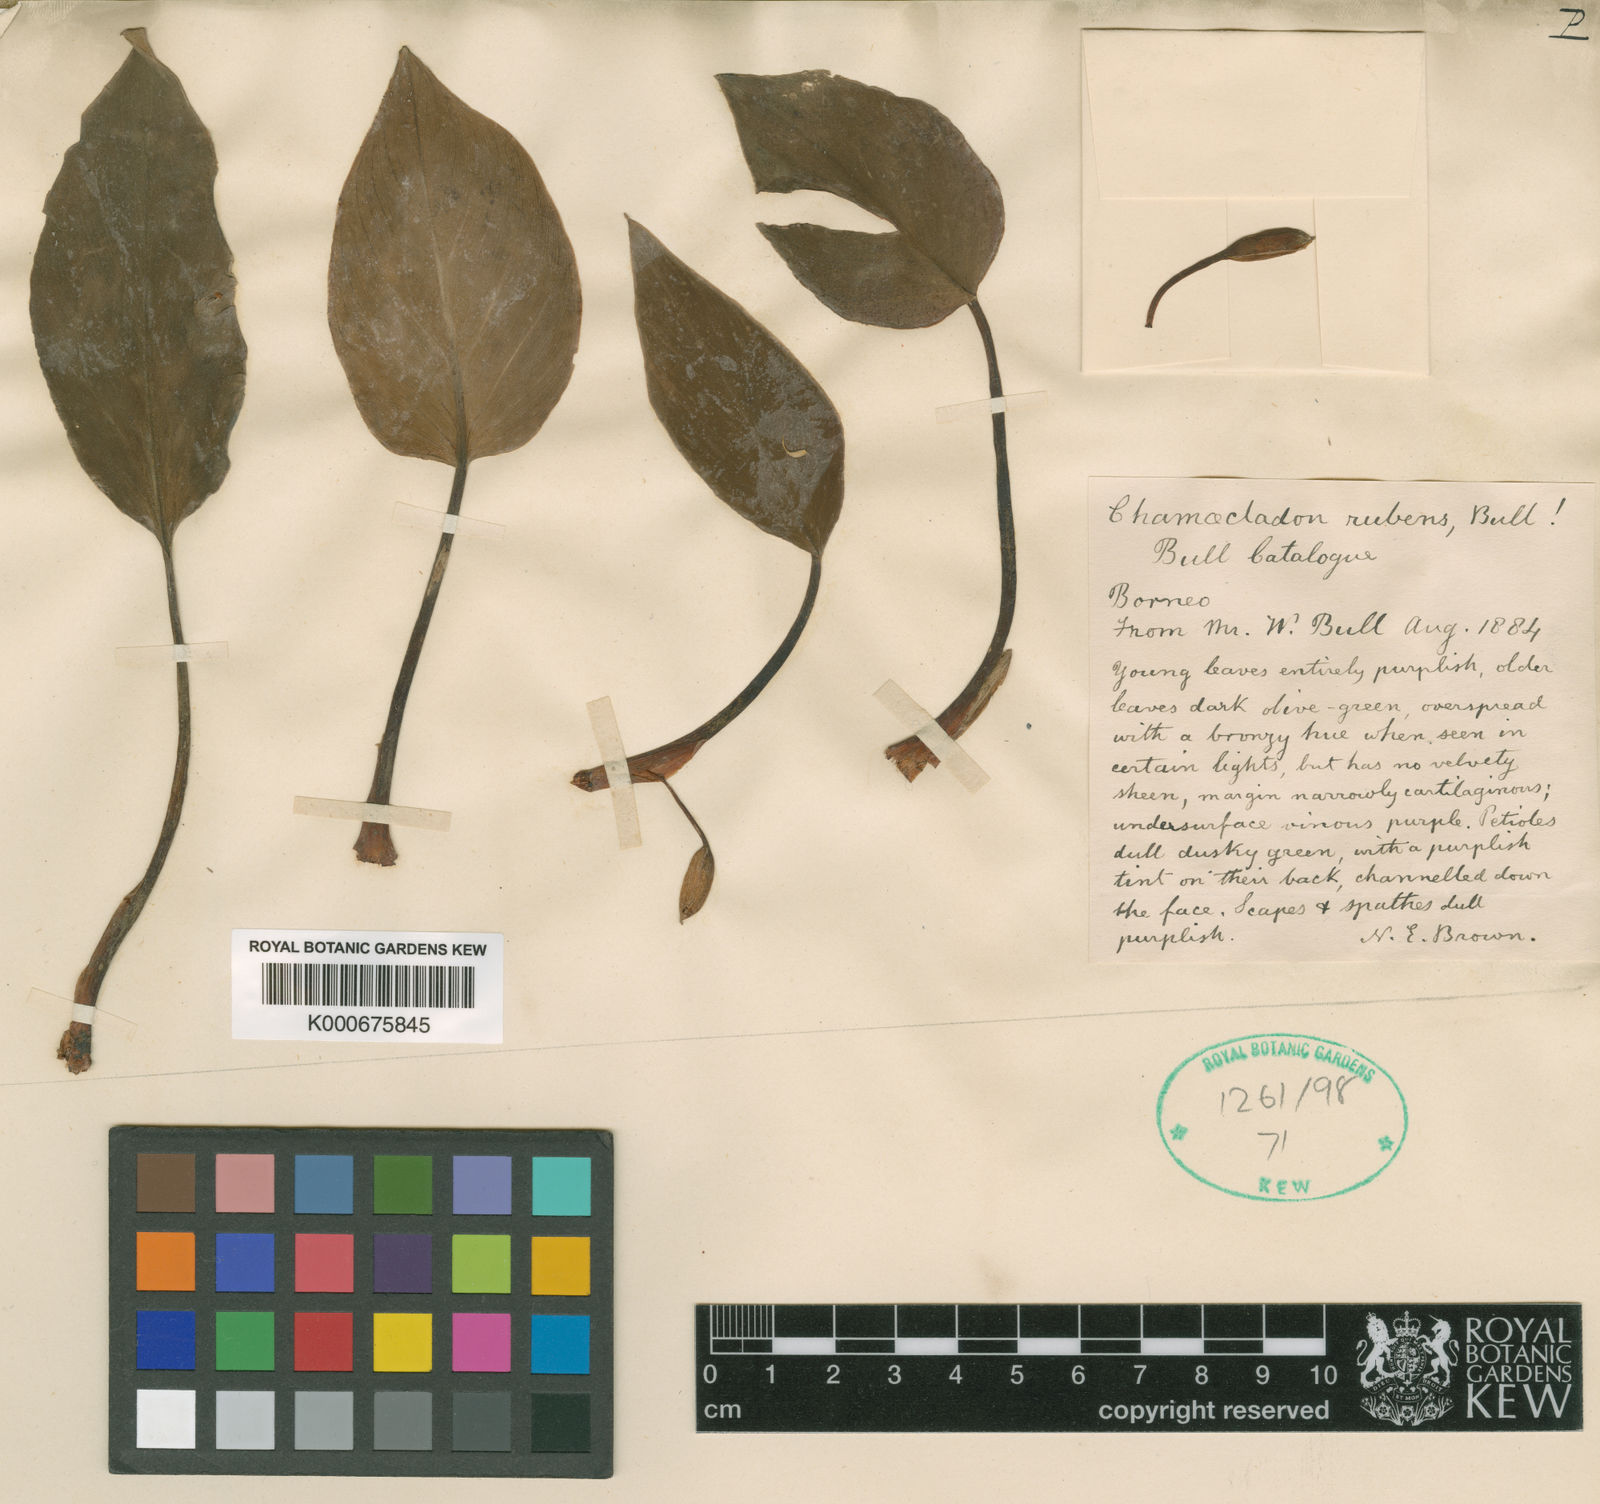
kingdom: Plantae
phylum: Tracheophyta
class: Liliopsida
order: Alismatales
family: Araceae
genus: Homalomena
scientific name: Homalomena
